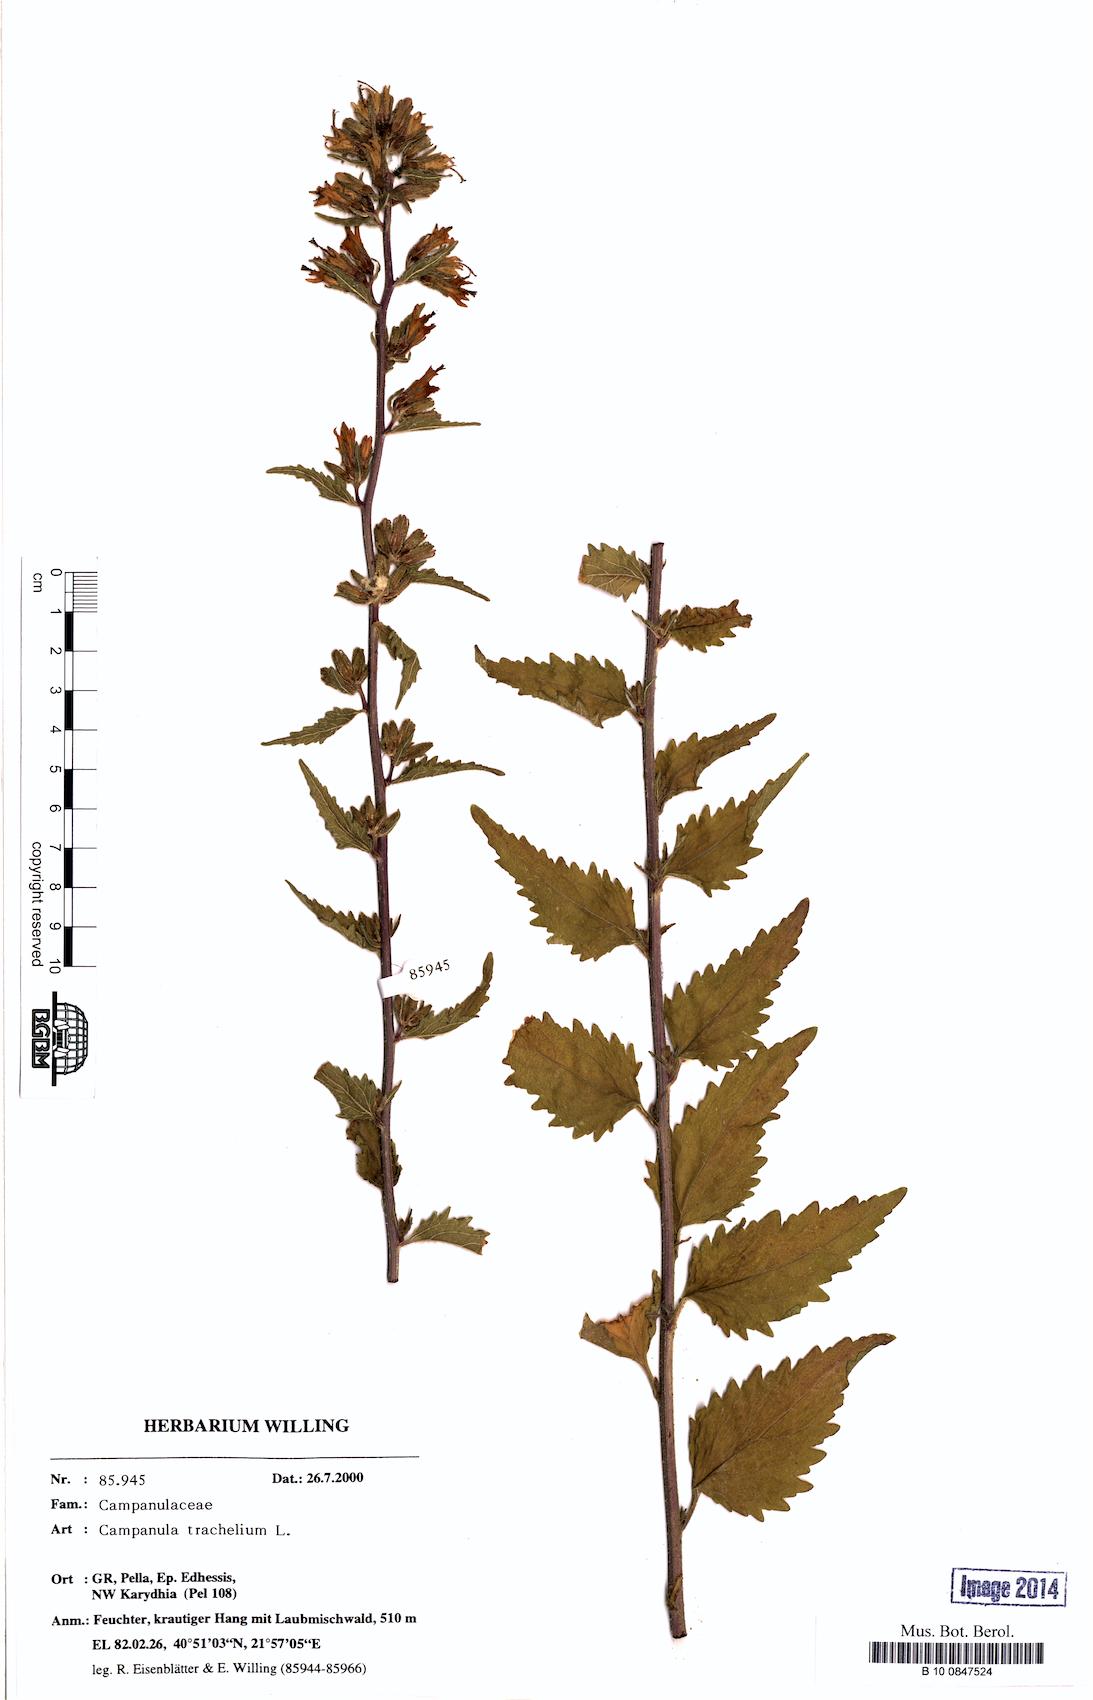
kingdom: Plantae
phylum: Tracheophyta
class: Magnoliopsida
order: Asterales
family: Campanulaceae
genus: Campanula
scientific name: Campanula trachelium
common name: Nettle-leaved bellflower
